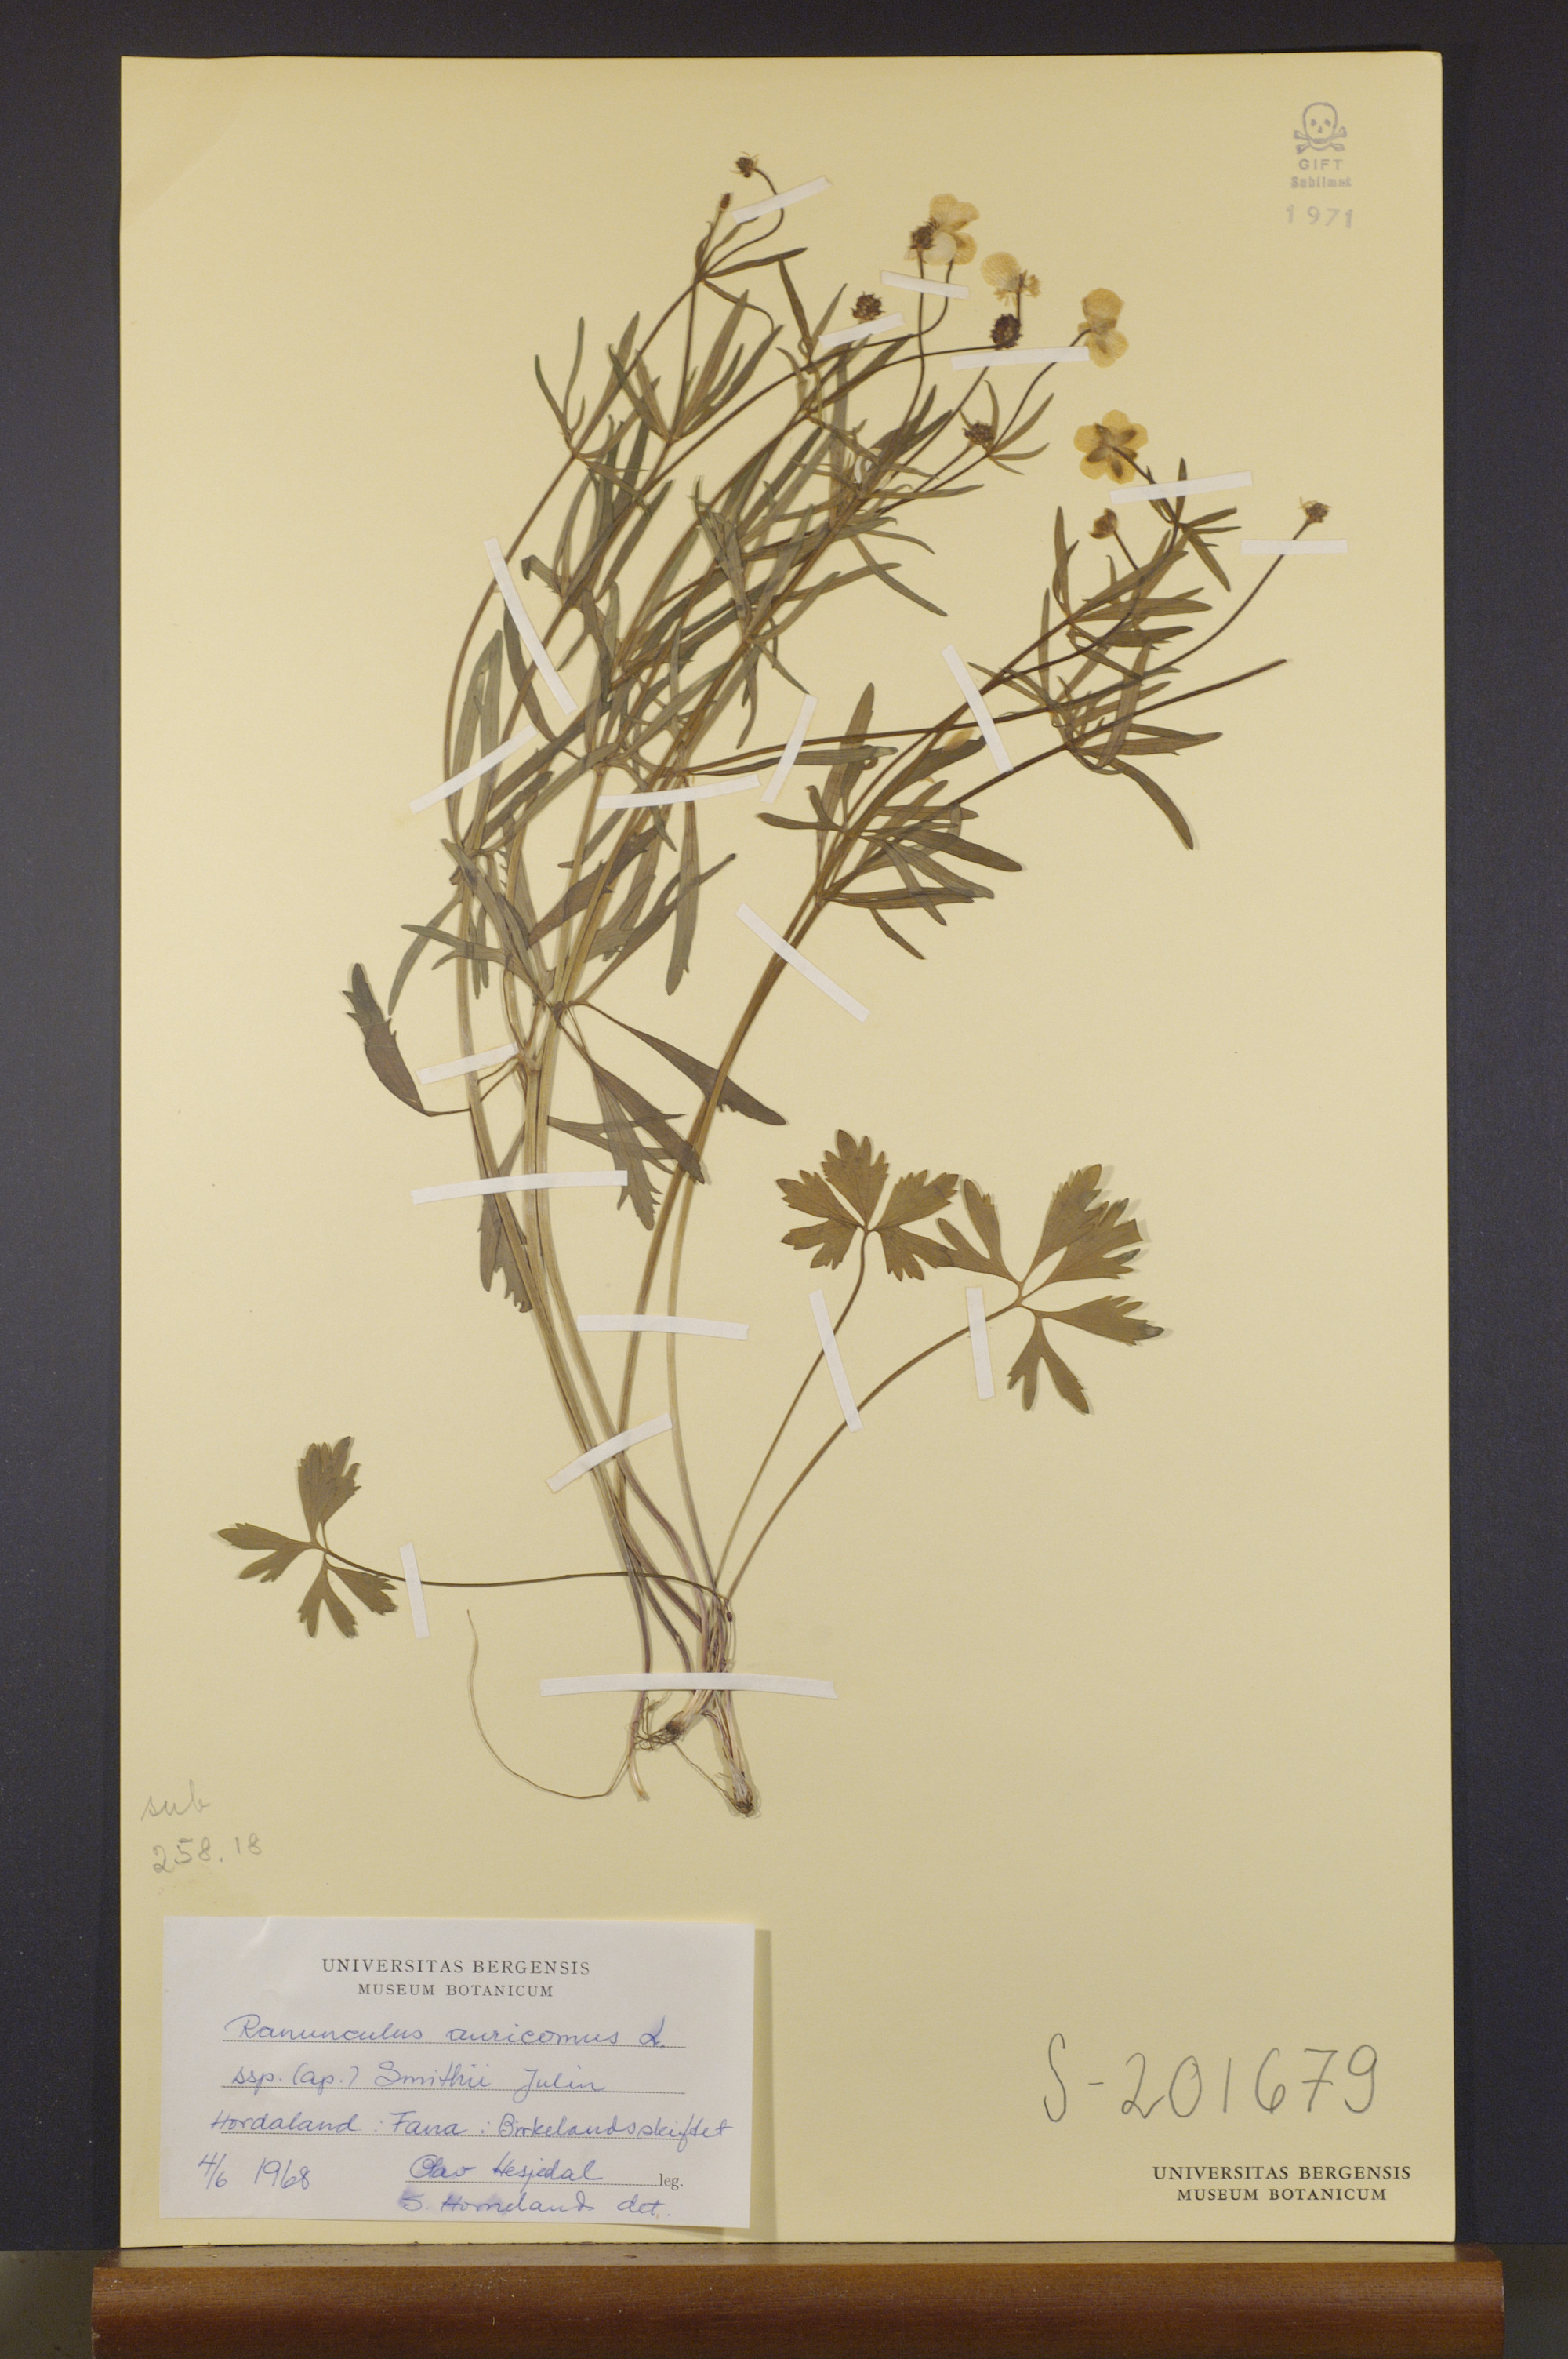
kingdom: Plantae
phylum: Tracheophyta
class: Magnoliopsida
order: Ranunculales
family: Ranunculaceae
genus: Ranunculus
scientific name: Ranunculus pulchridentatus
